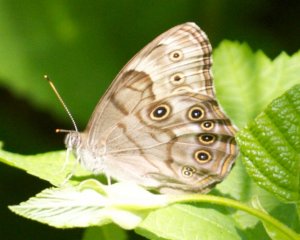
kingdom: Animalia
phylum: Arthropoda
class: Insecta
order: Lepidoptera
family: Nymphalidae
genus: Lethe
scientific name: Lethe anthedon
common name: Northern Pearly-Eye
